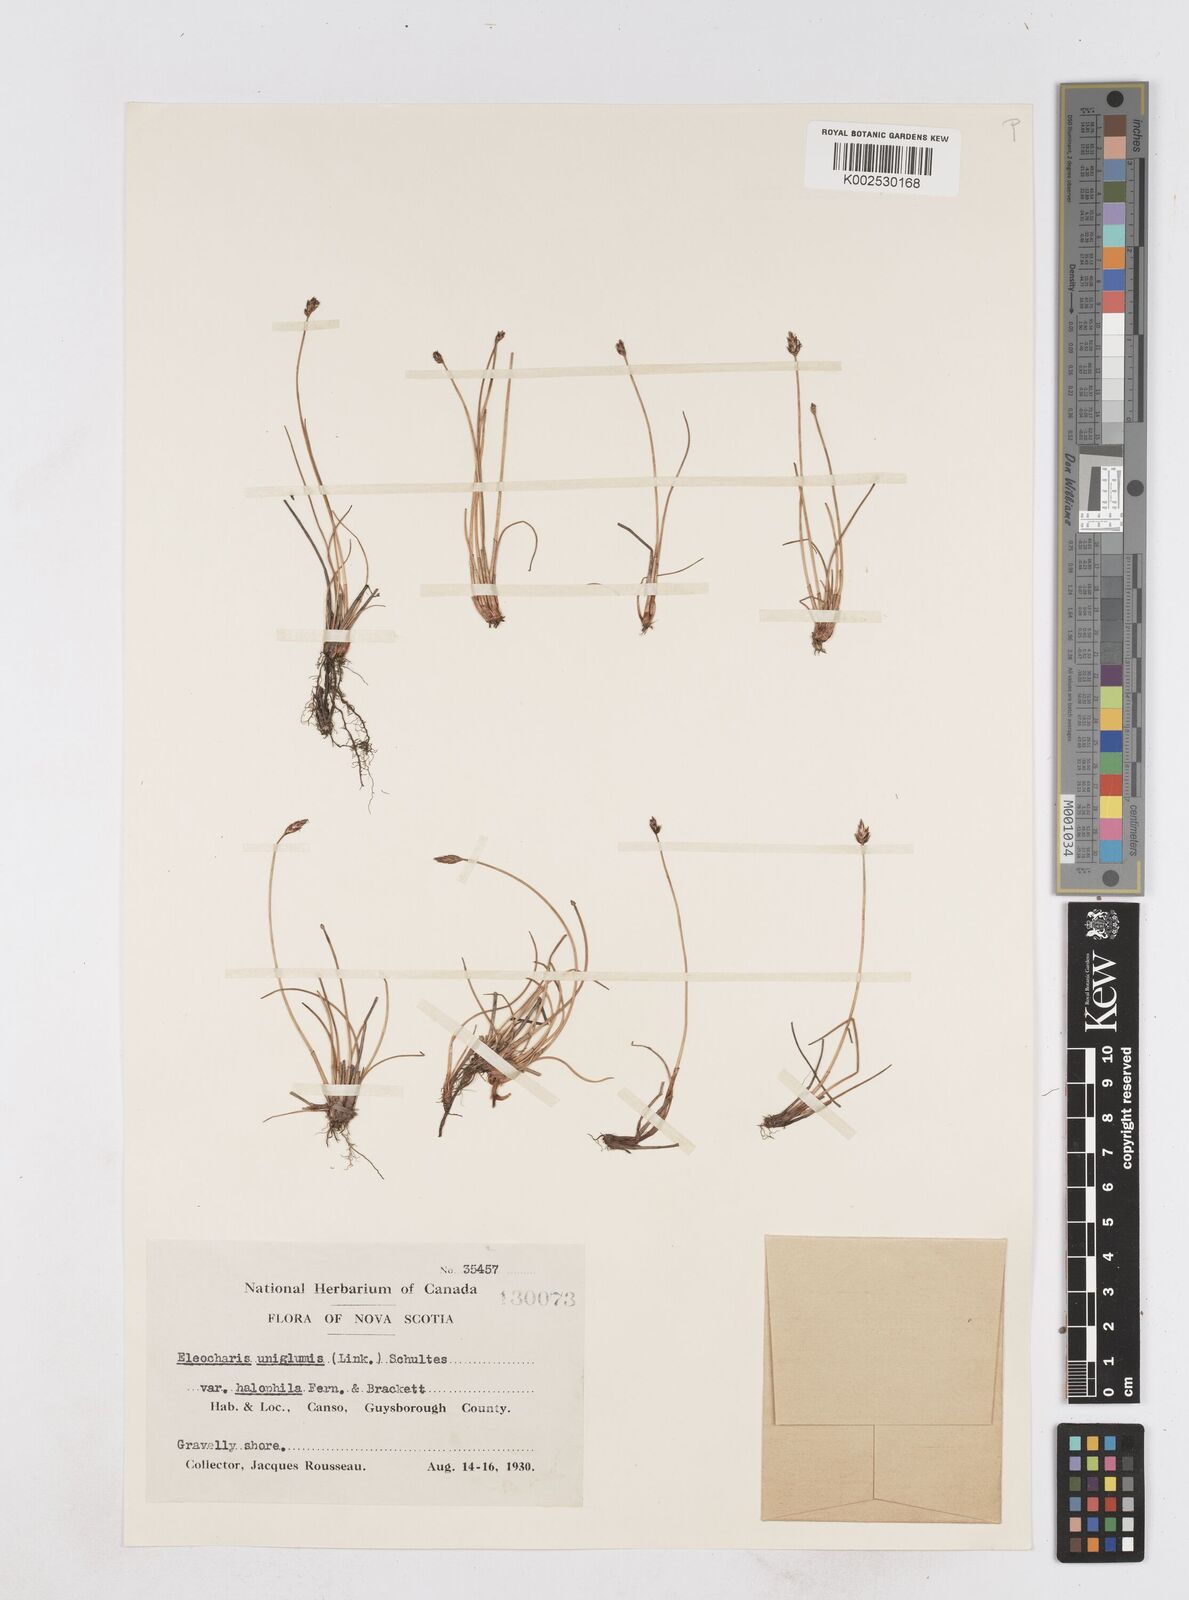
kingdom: Plantae
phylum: Tracheophyta
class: Liliopsida
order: Poales
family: Cyperaceae
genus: Eleocharis
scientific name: Eleocharis uniglumis
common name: Slender spike-rush
